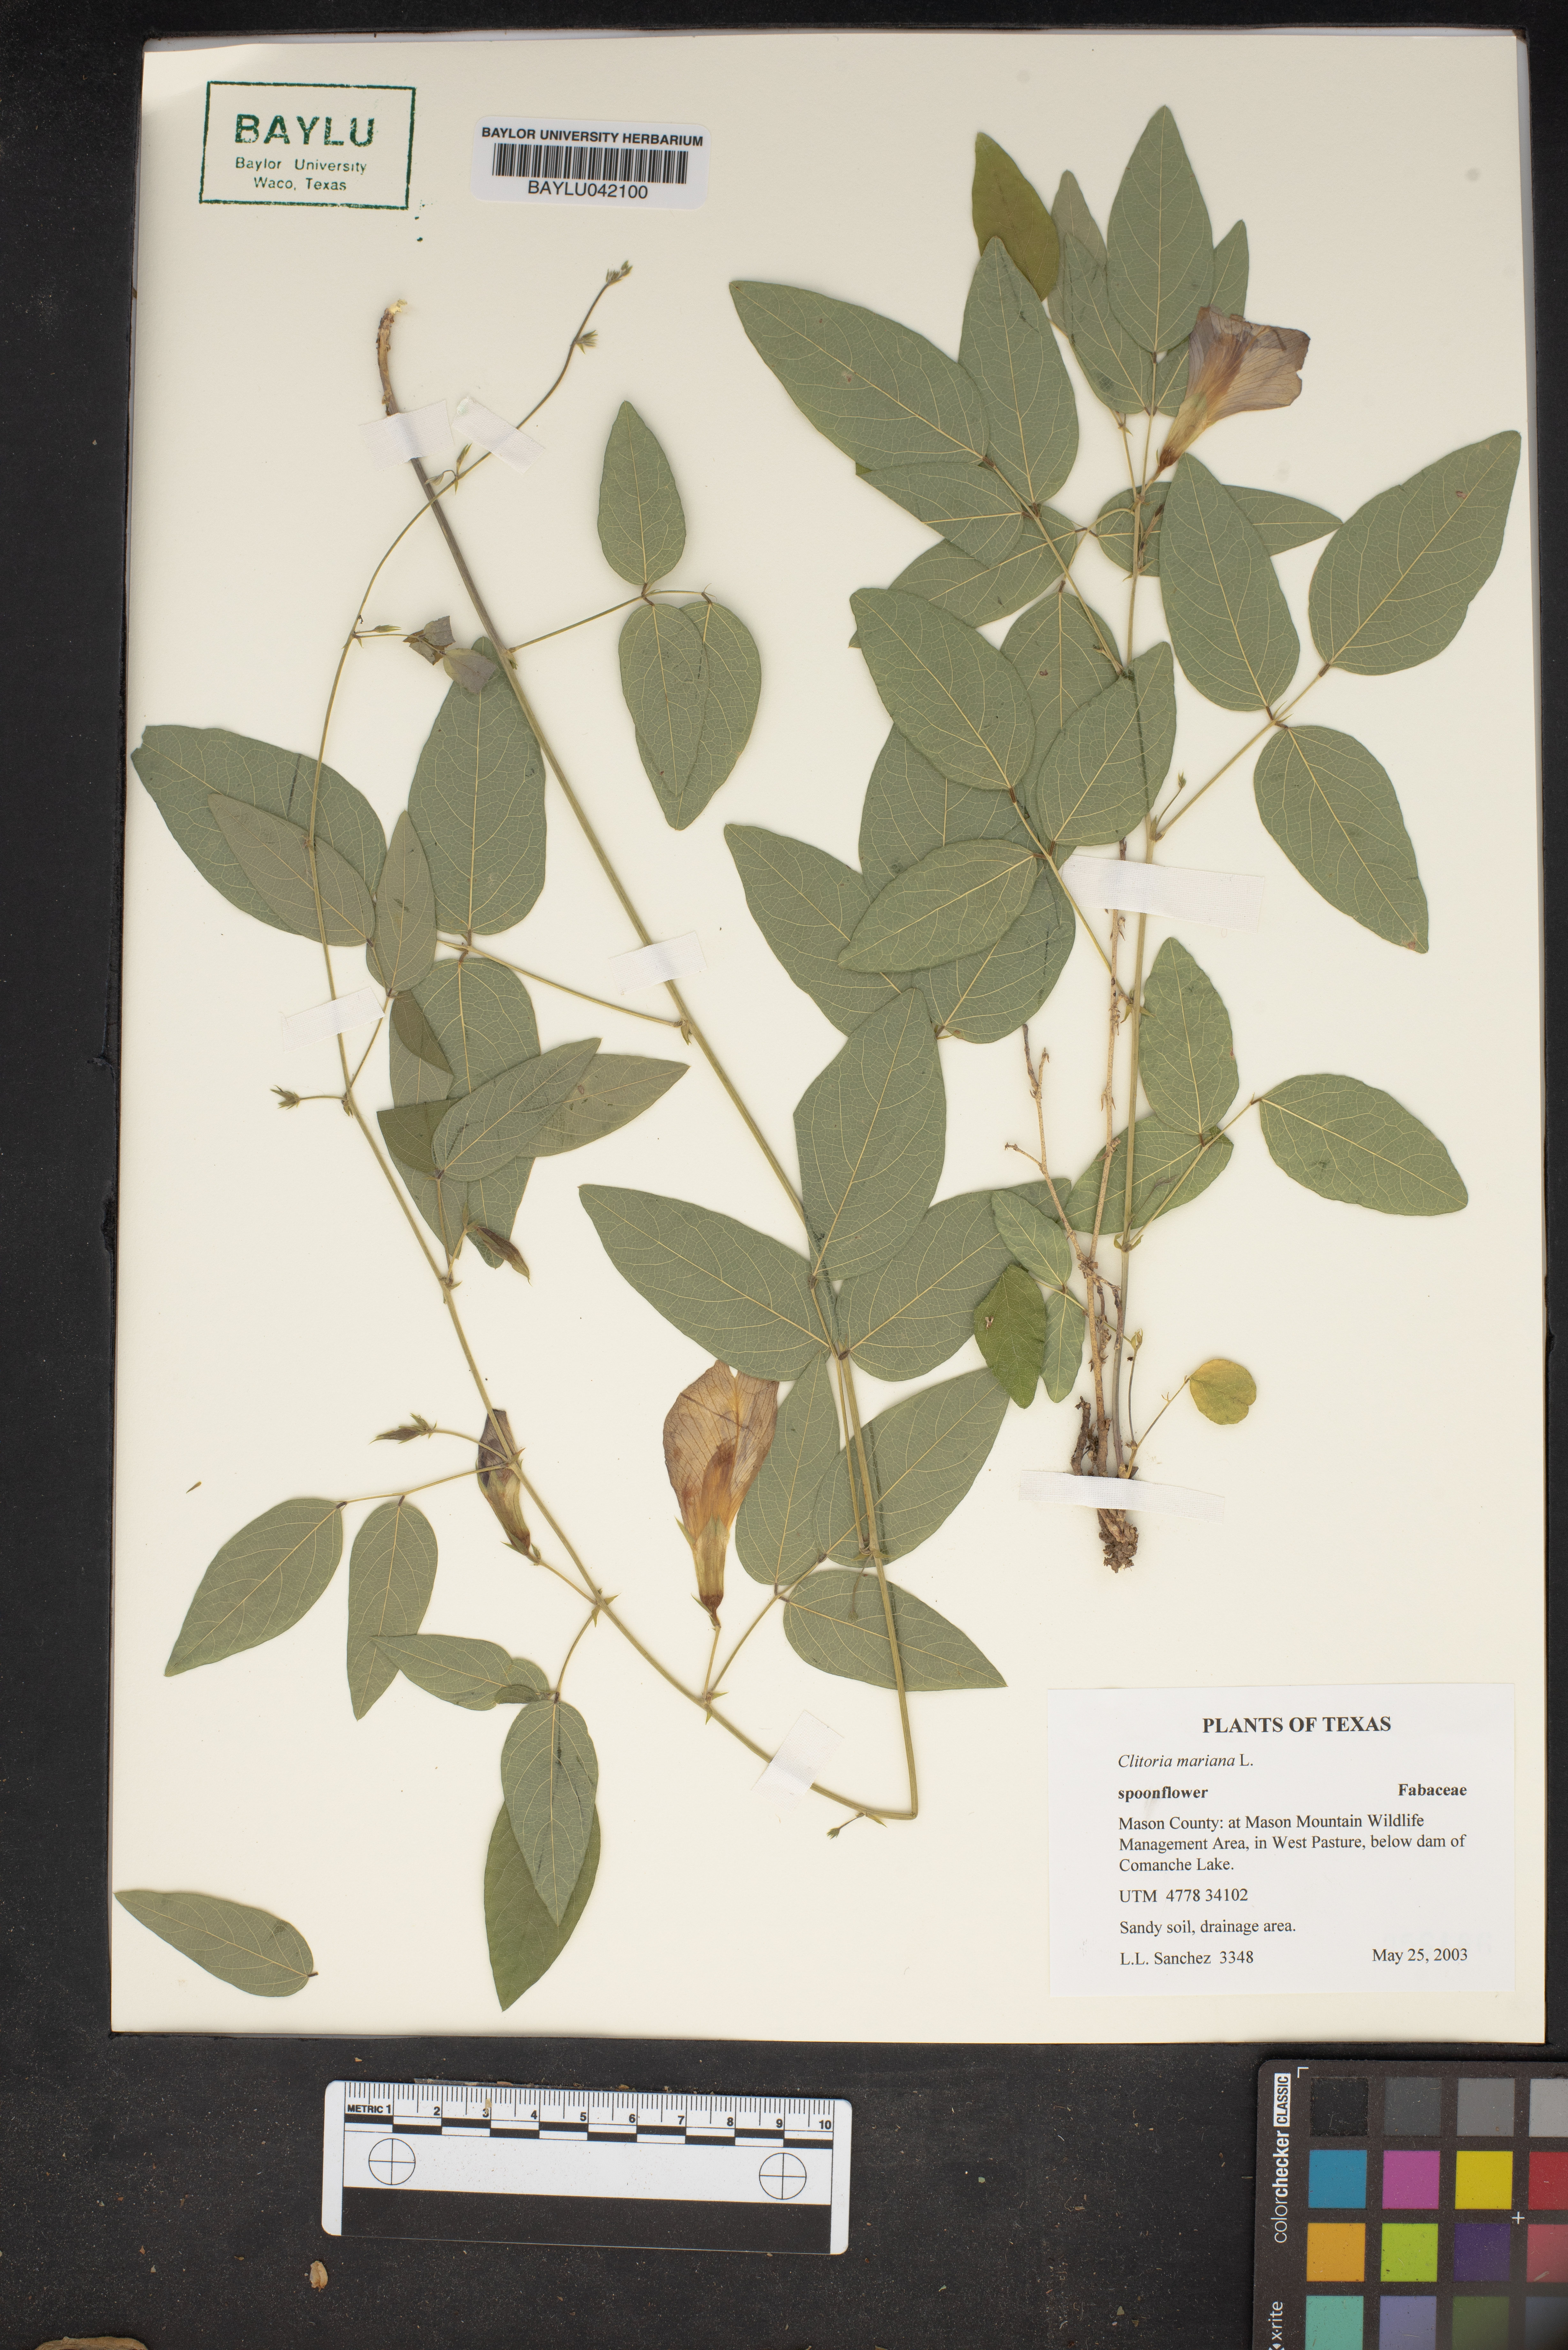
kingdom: Plantae
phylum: Tracheophyta
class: Magnoliopsida
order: Fabales
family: Fabaceae
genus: Clitoria
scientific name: Clitoria mariana
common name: Butterfly-pea
